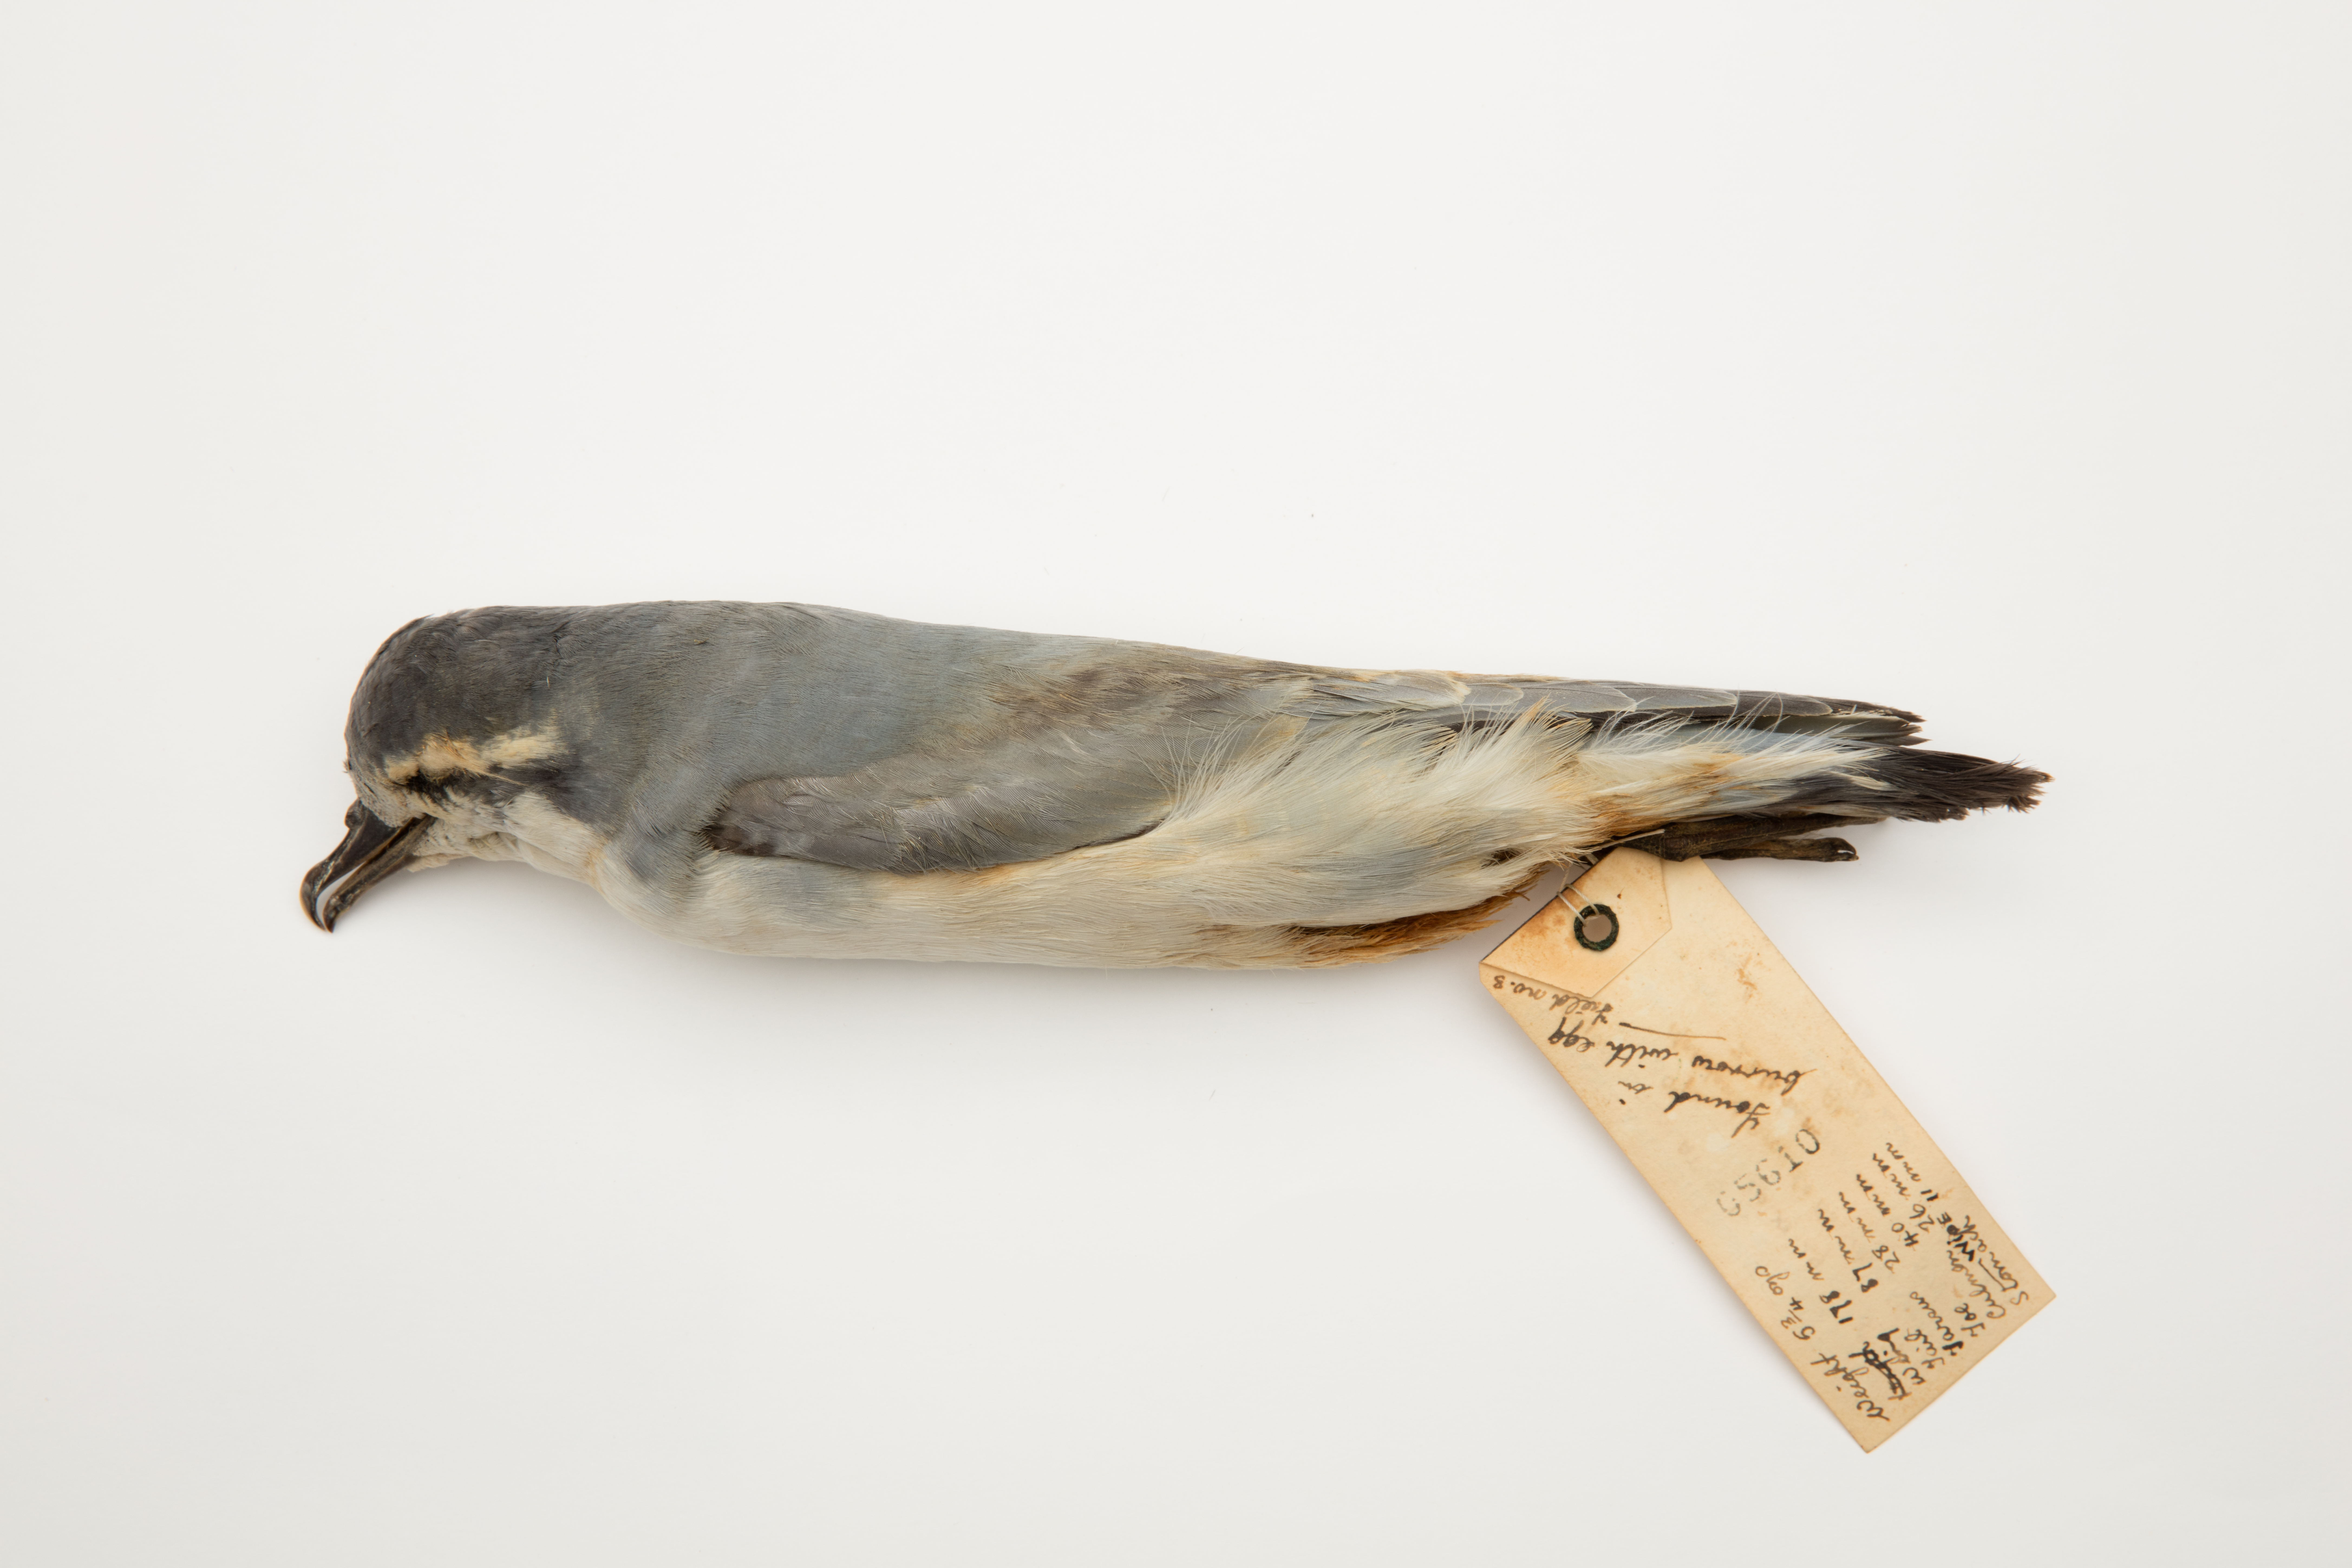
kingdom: Animalia
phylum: Chordata
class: Aves
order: Procellariiformes
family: Procellariidae
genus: Pachyptila
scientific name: Pachyptila belcheri
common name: Slender-billed prion
